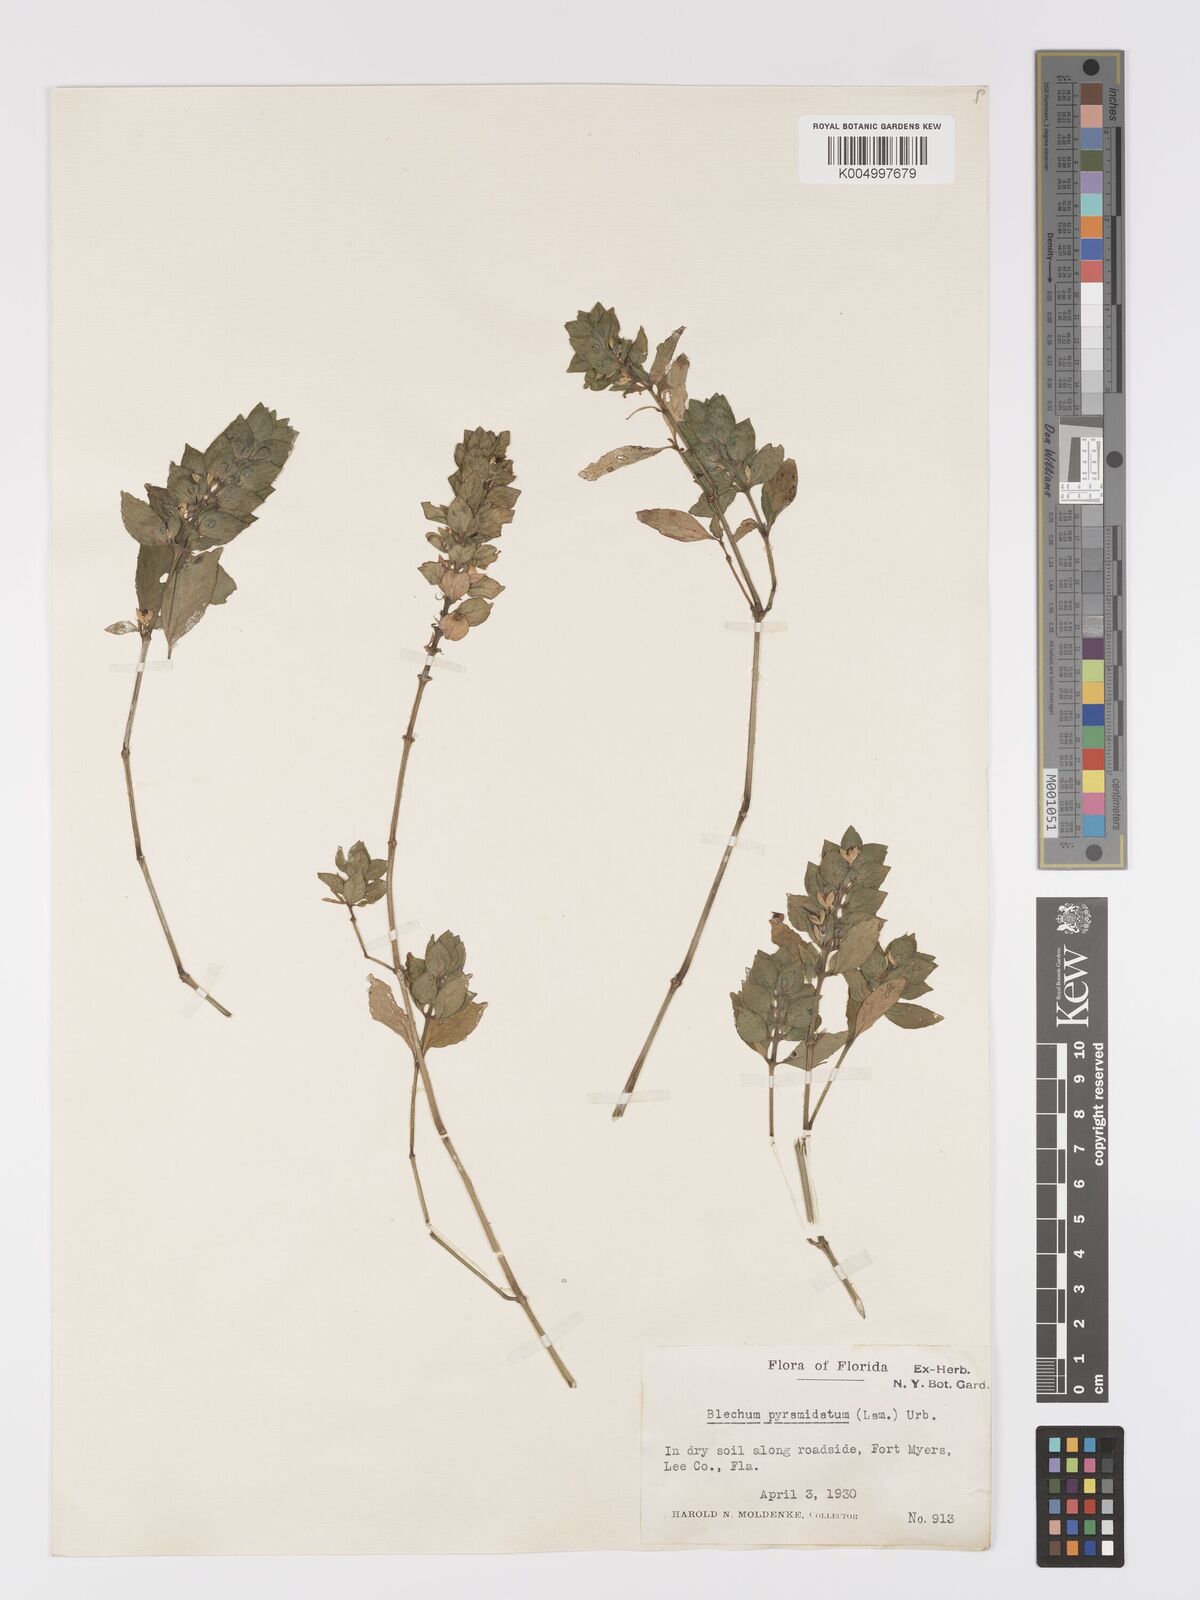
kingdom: Plantae
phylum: Tracheophyta
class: Magnoliopsida
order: Lamiales
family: Acanthaceae
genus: Ruellia
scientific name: Ruellia blechum
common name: Browne's blechum
